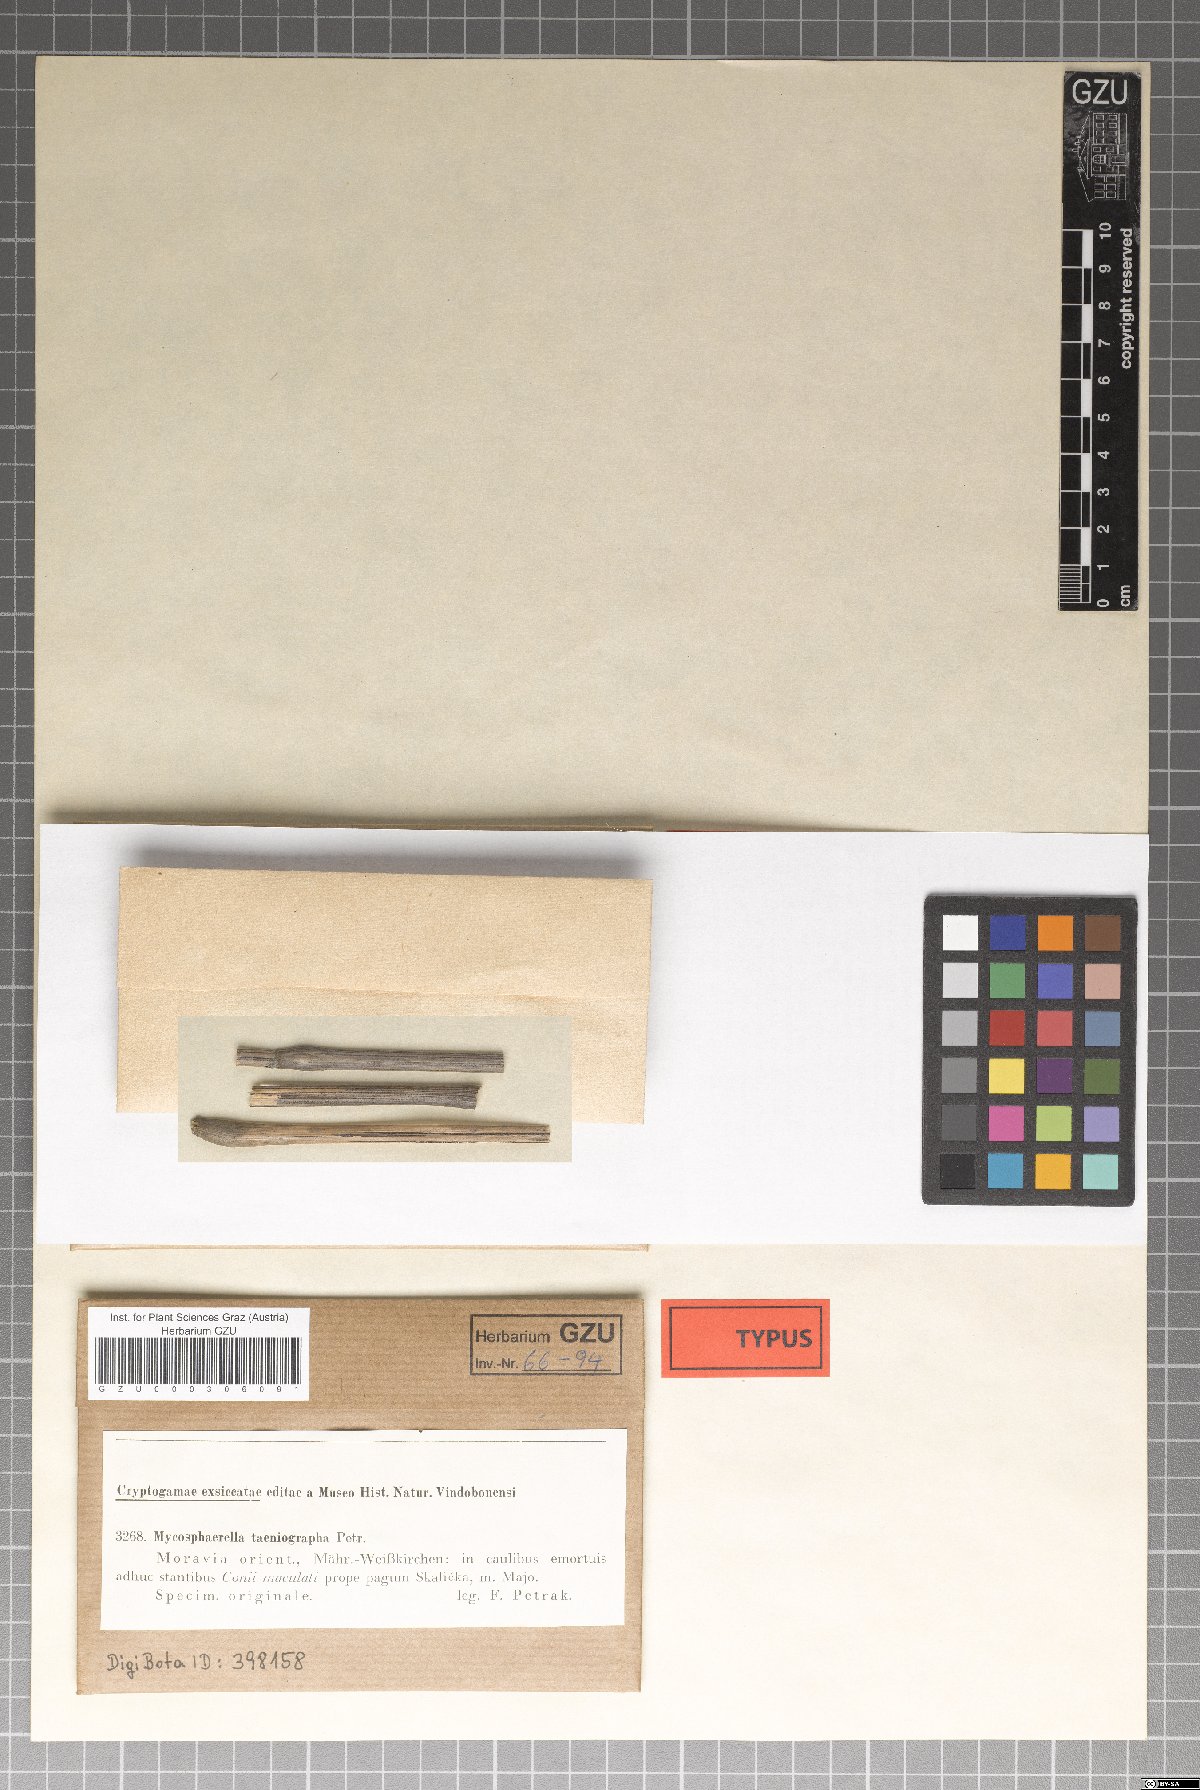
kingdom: Fungi
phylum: Ascomycota
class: Dothideomycetes
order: Mycosphaerellales
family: Mycosphaerellaceae
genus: Mycosphaerella
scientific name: Mycosphaerella taeniographa
